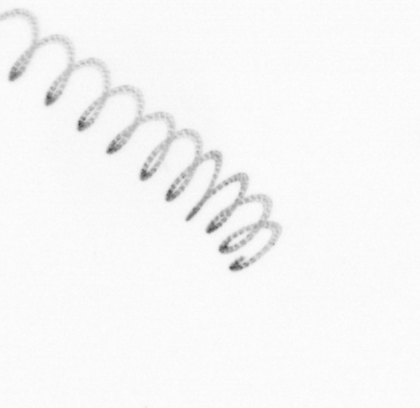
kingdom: Chromista
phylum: Ochrophyta
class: Bacillariophyceae
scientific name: Bacillariophyceae
